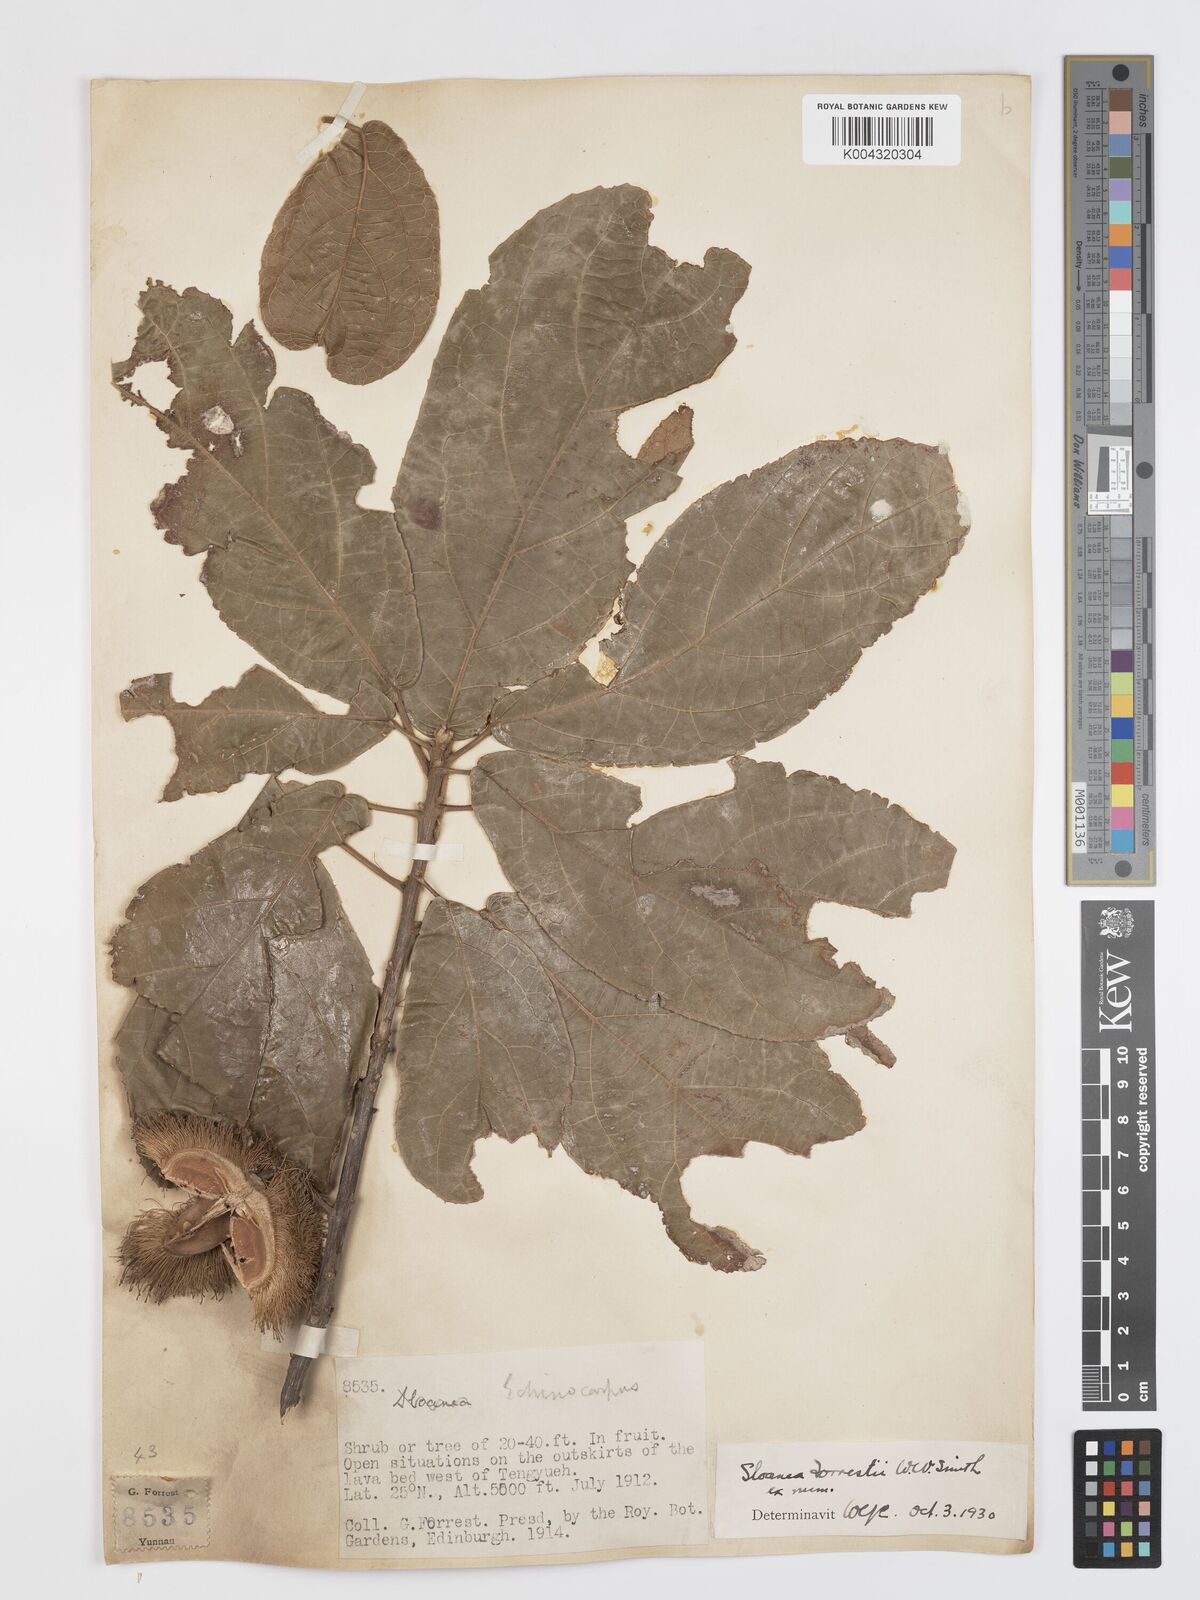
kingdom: Plantae
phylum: Tracheophyta
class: Magnoliopsida
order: Oxalidales
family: Elaeocarpaceae
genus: Sloanea
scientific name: Sloanea sterculiacea
